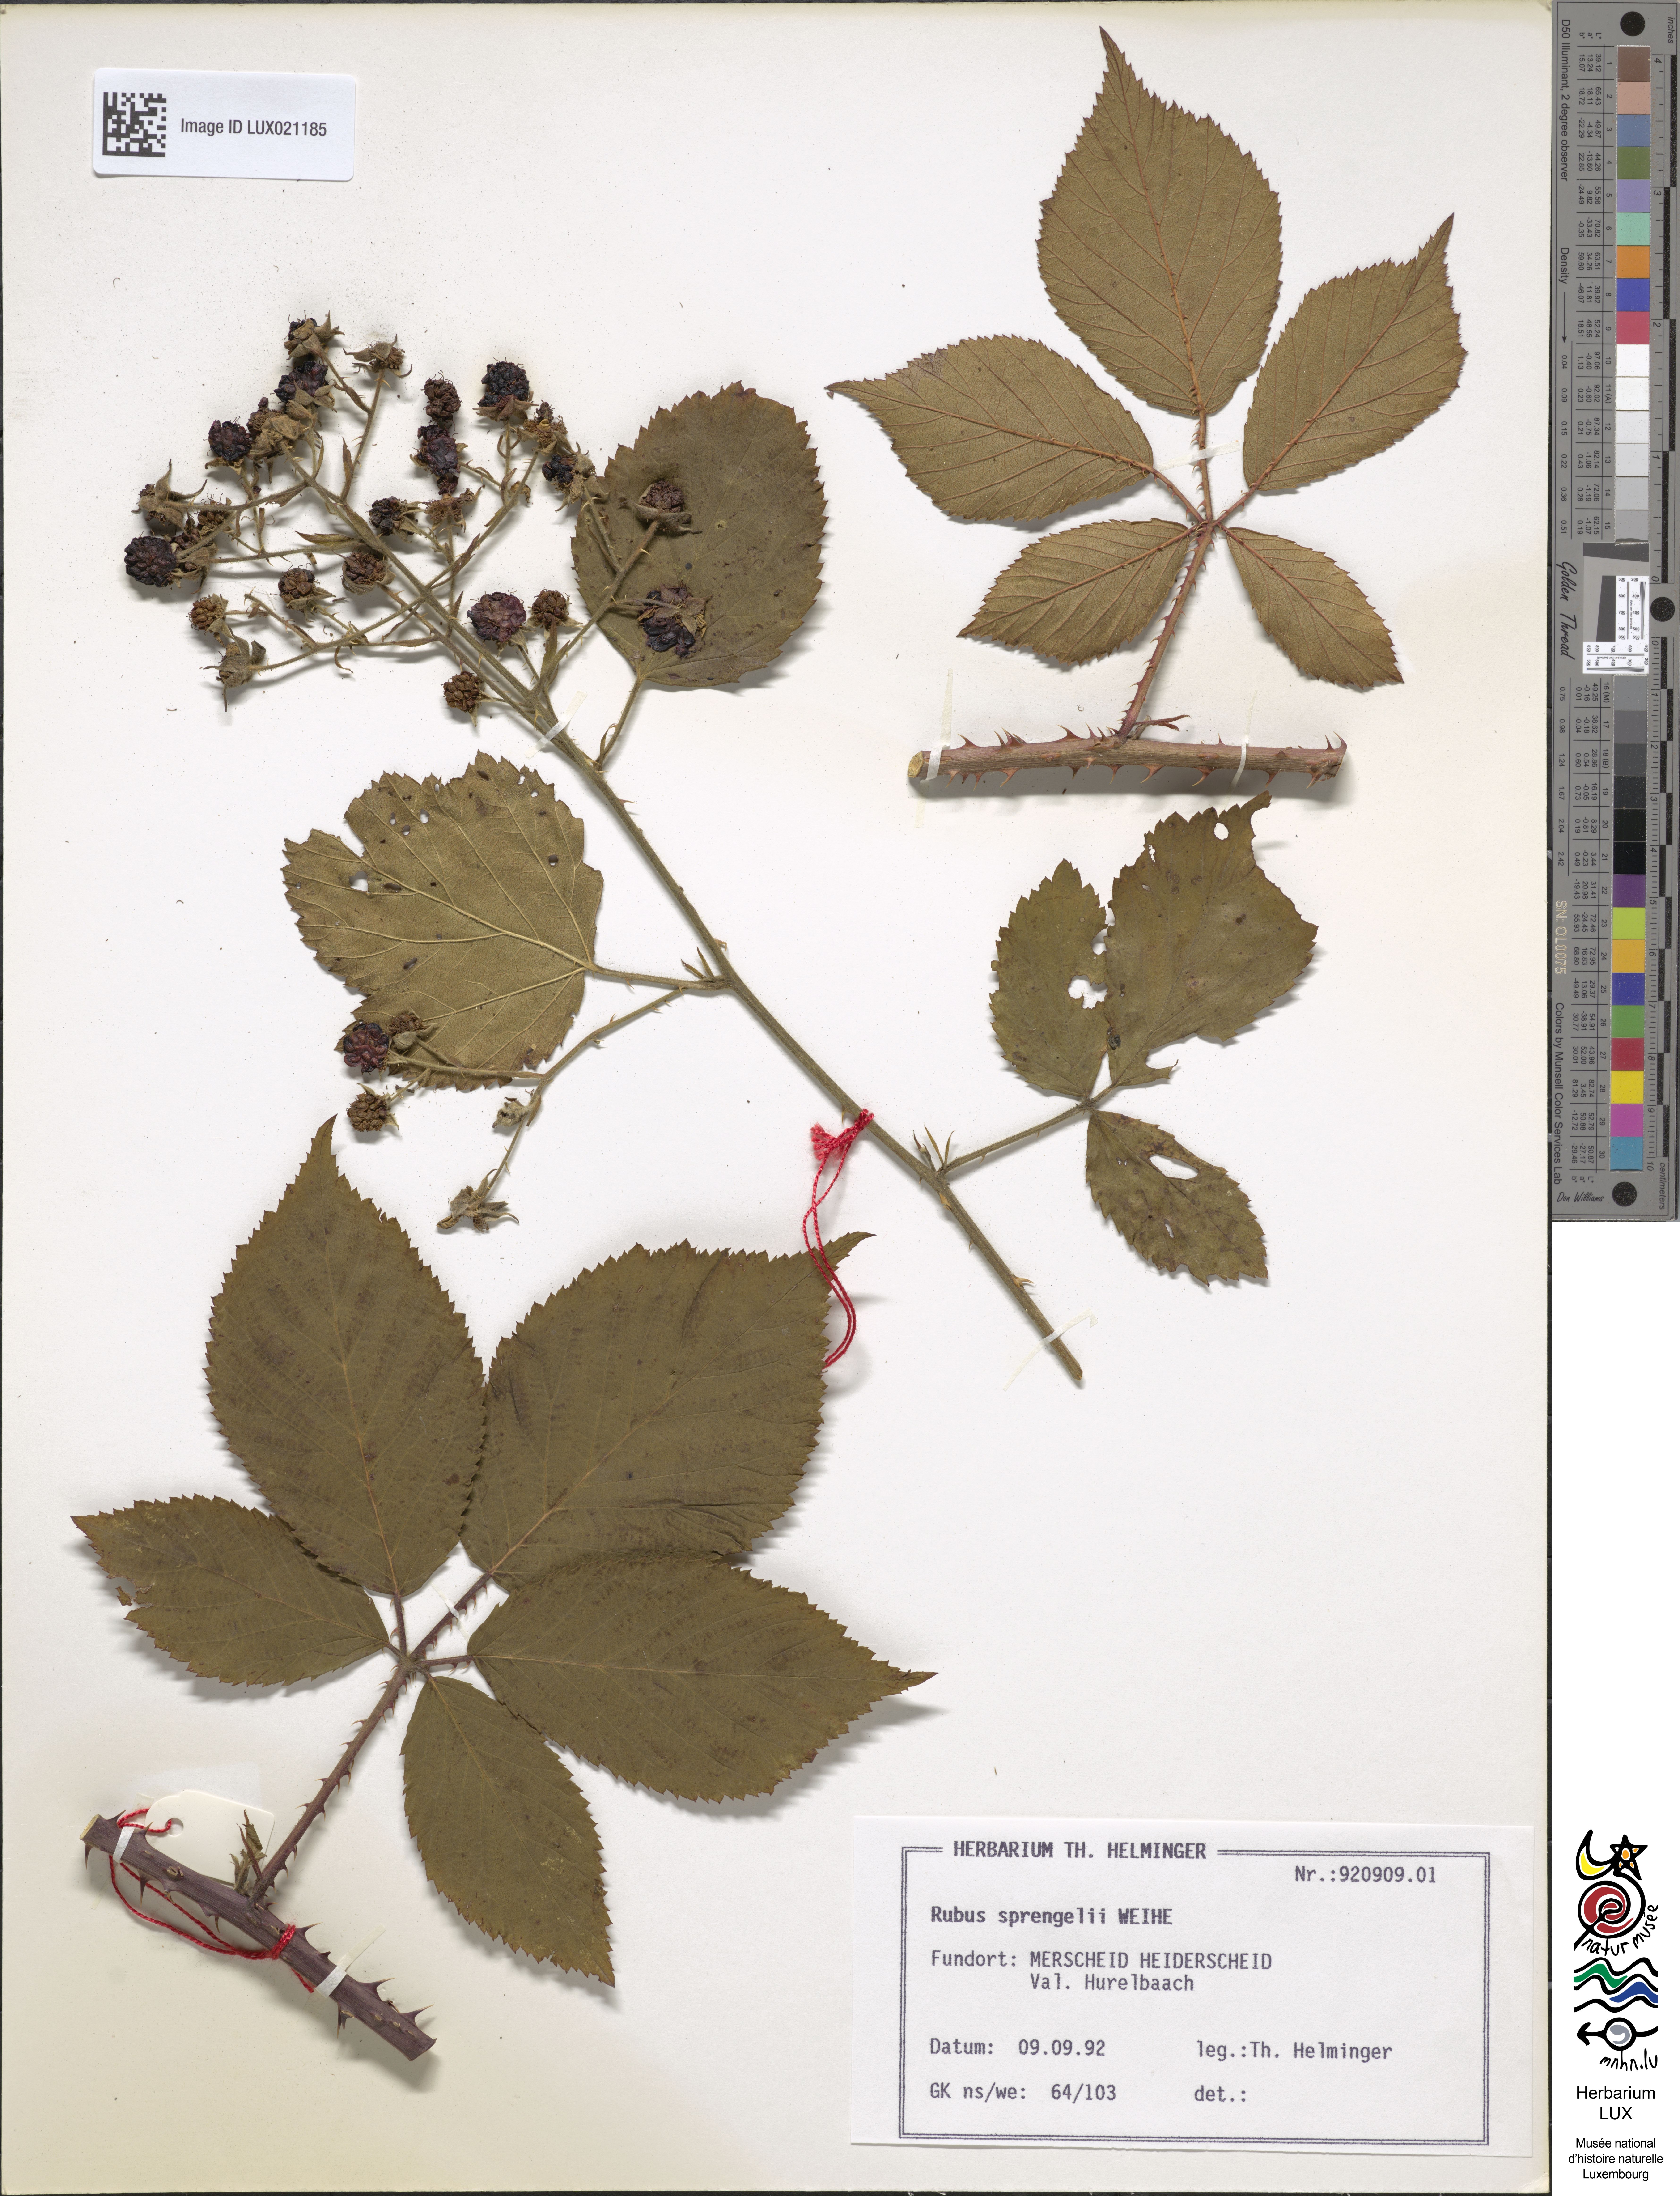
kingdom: Plantae
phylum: Tracheophyta
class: Magnoliopsida
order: Rosales
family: Rosaceae
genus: Rubus
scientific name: Rubus sprengelii
